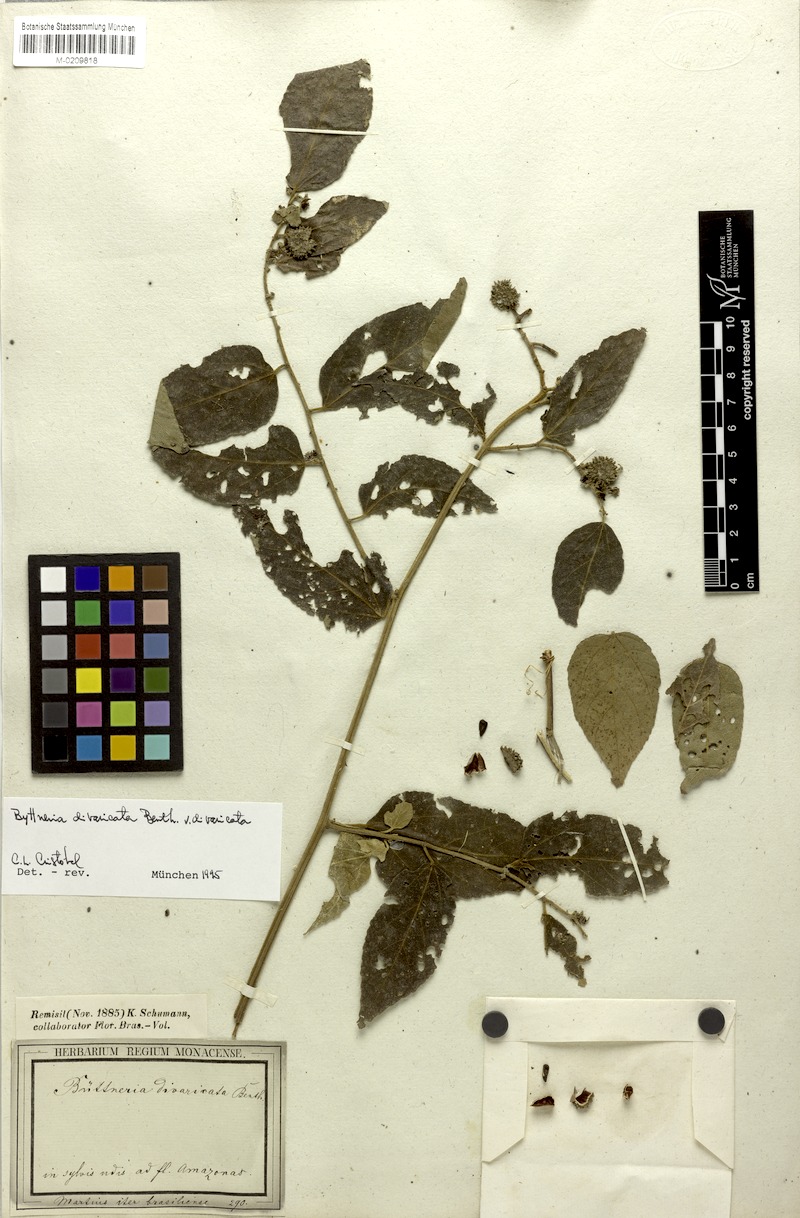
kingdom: Plantae
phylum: Tracheophyta
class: Magnoliopsida
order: Malvales
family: Malvaceae
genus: Byttneria
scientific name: Byttneria divaricata
